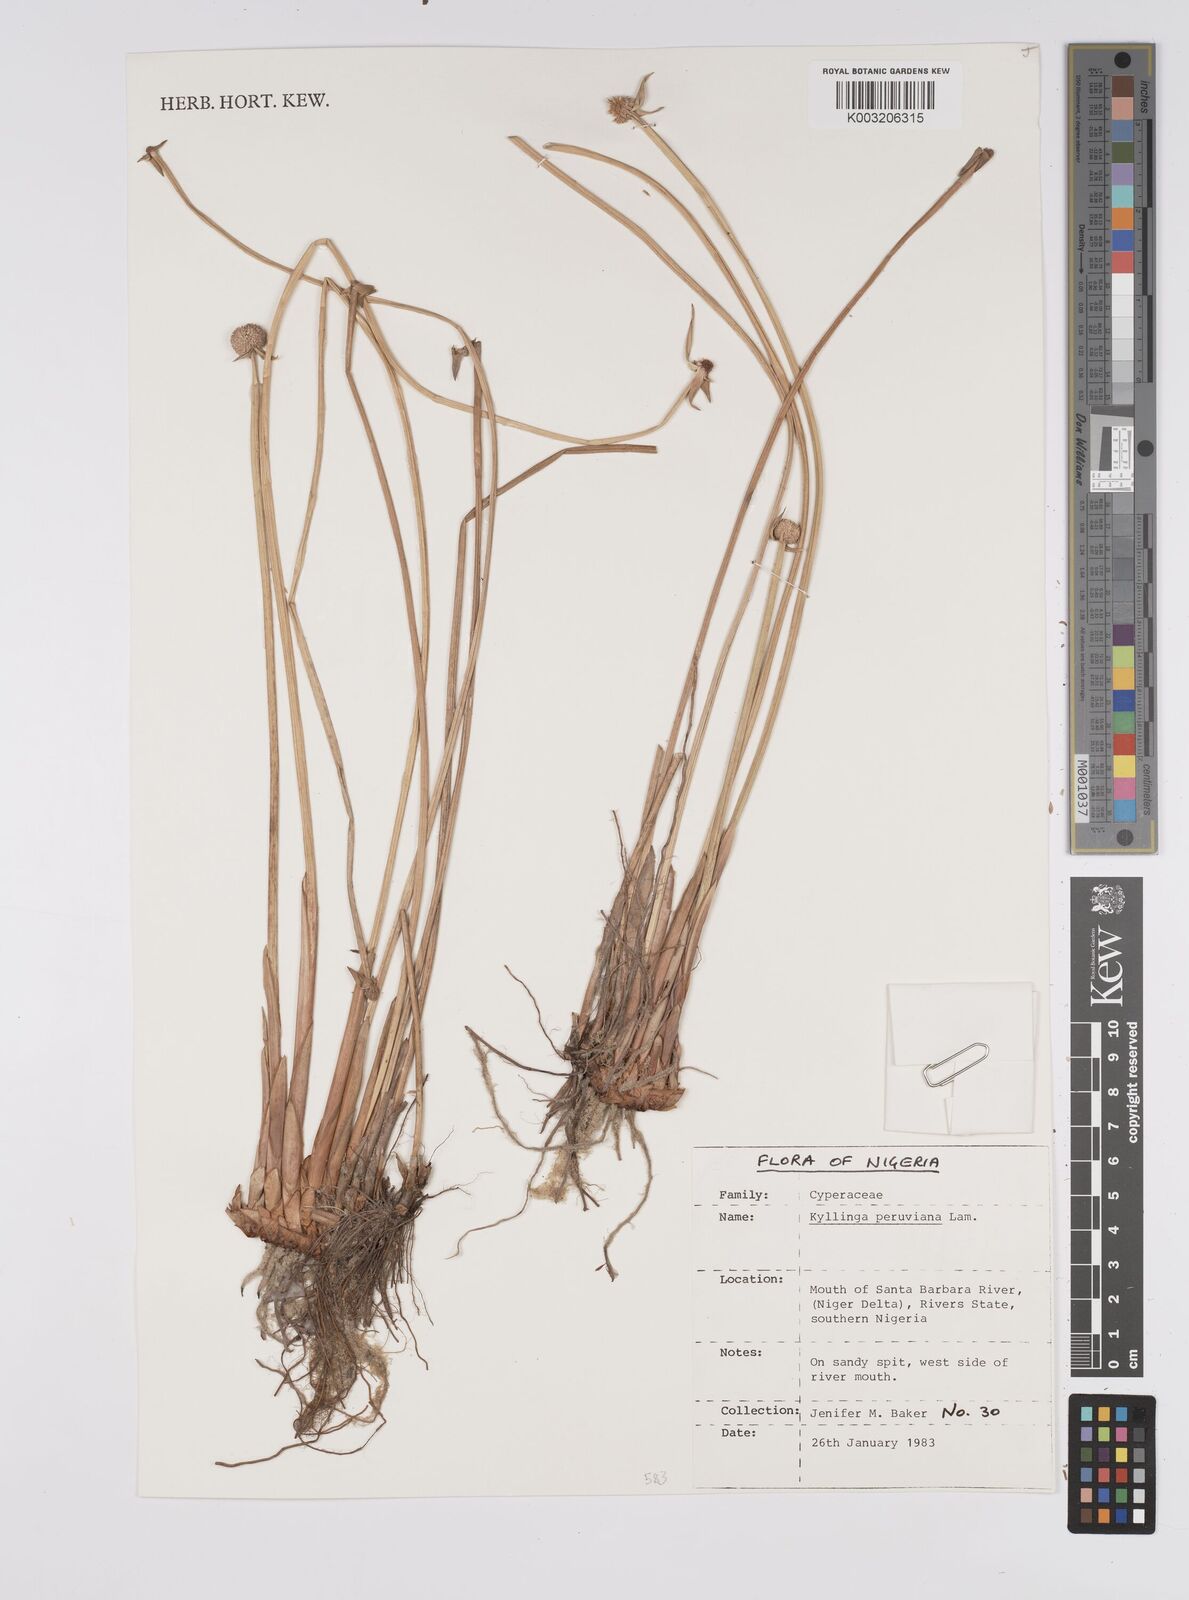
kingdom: Plantae
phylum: Tracheophyta
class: Liliopsida
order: Poales
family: Cyperaceae
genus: Cyperus
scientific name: Cyperus
